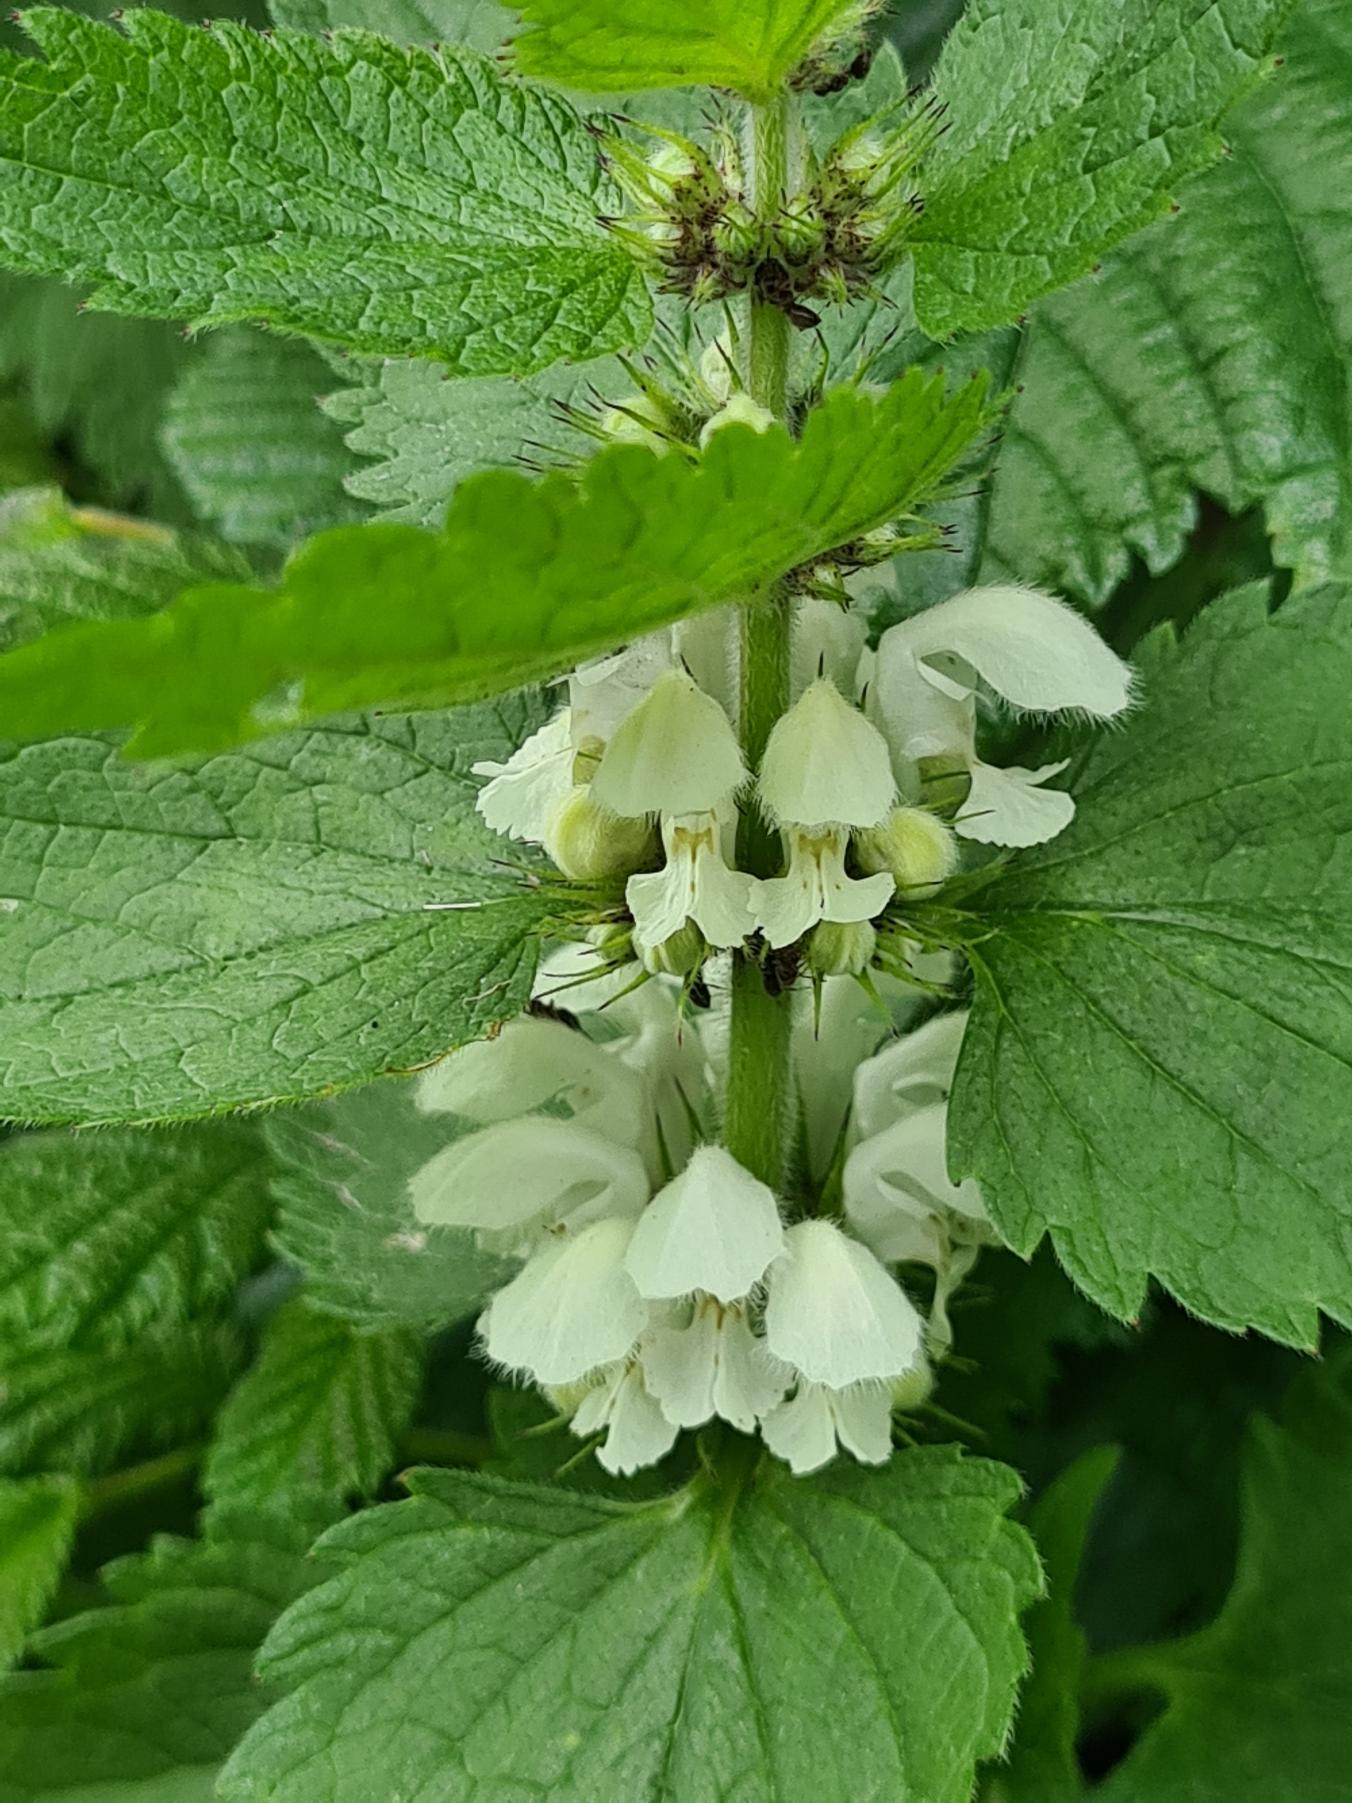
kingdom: Plantae
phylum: Tracheophyta
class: Magnoliopsida
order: Lamiales
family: Lamiaceae
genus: Lamium
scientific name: Lamium album
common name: Døvnælde
